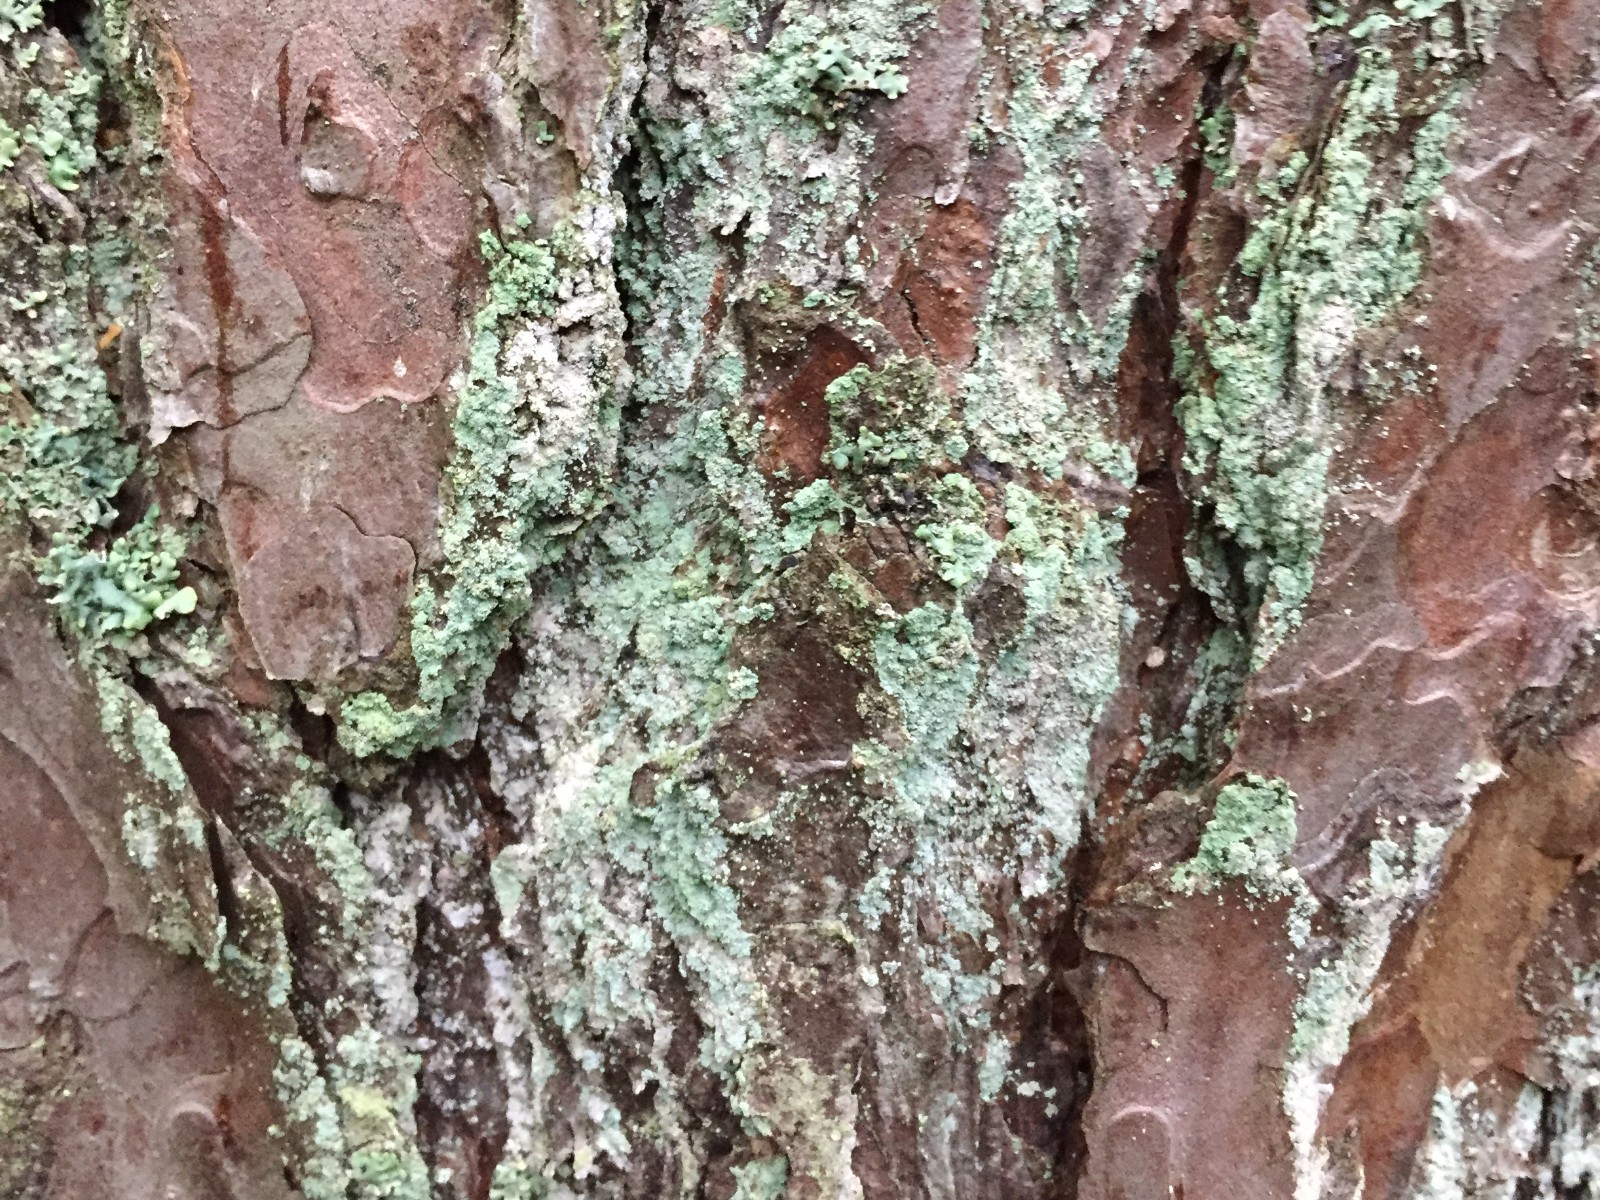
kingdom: Fungi
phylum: Ascomycota
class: Lecanoromycetes
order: Lecanorales
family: Stereocaulaceae
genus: Lepraria
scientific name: Lepraria incana
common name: almindelig støvlav
